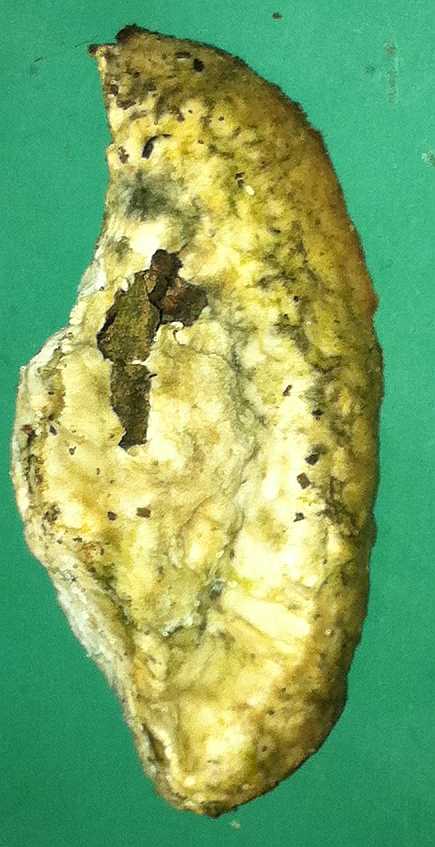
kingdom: Fungi
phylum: Basidiomycota
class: Agaricomycetes
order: Polyporales
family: Polyporaceae
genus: Cyanosporus
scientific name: Cyanosporus alni
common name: blegblå kødporesvamp
